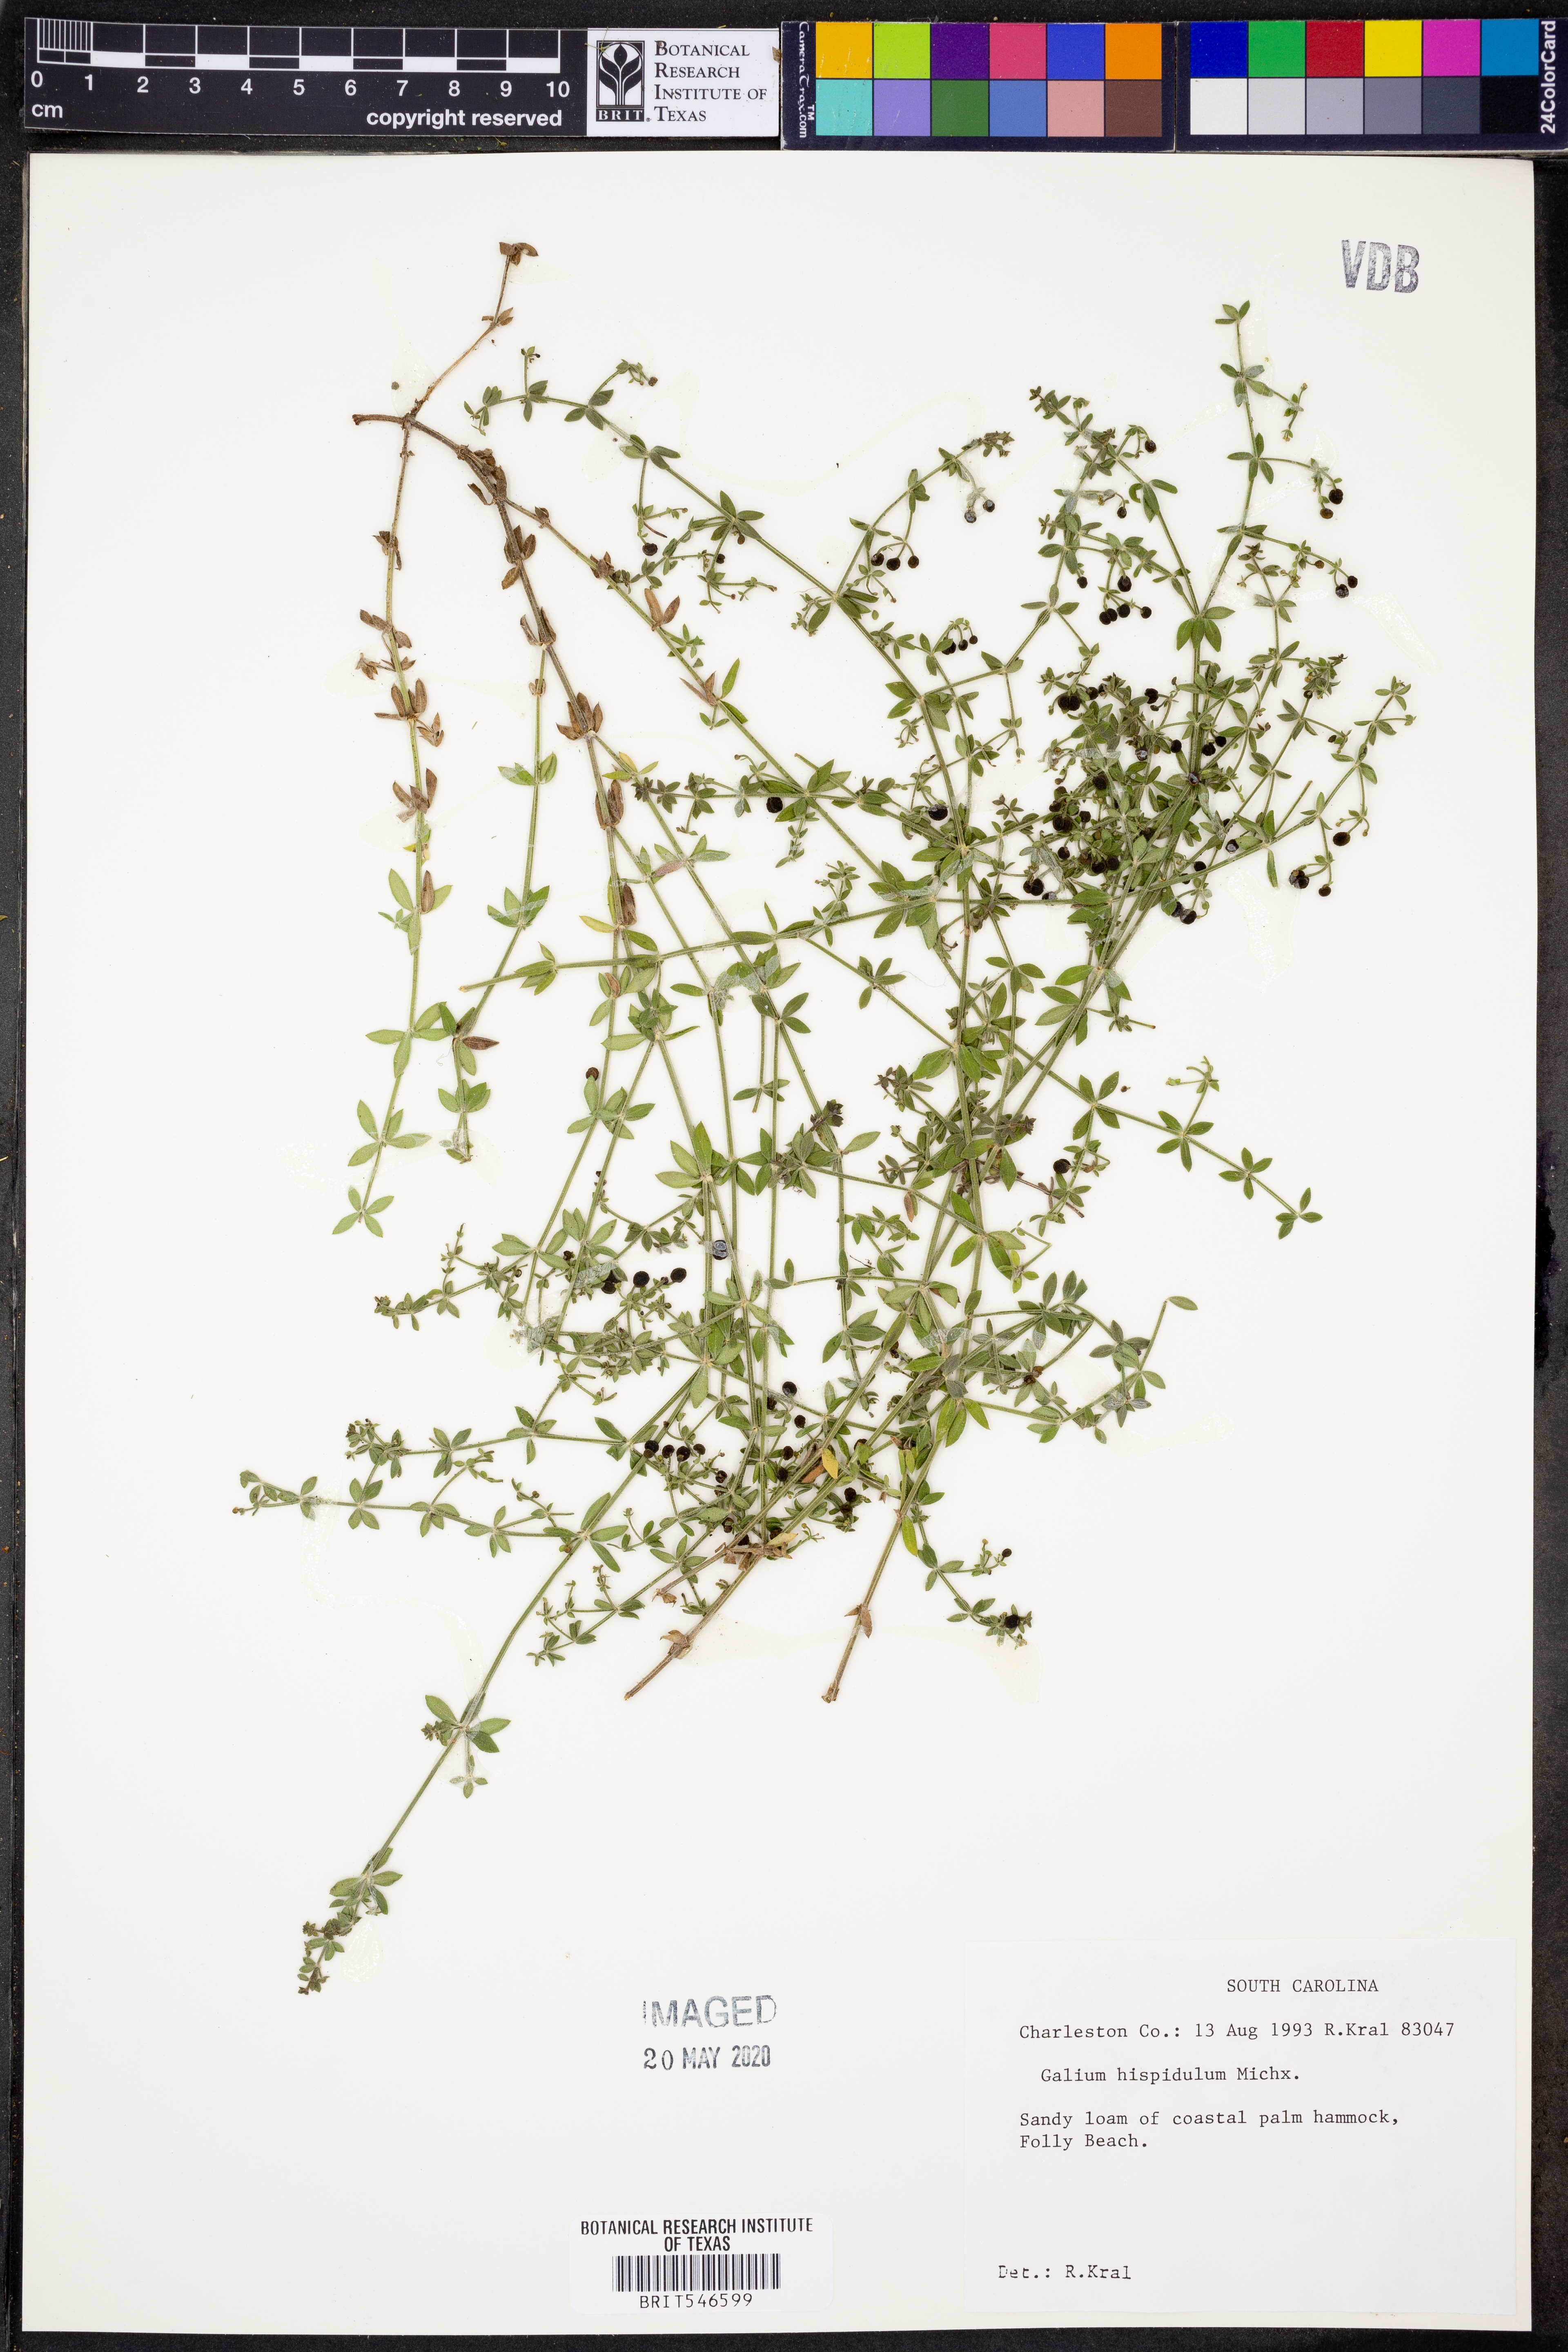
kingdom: Plantae
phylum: Tracheophyta
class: Magnoliopsida
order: Gentianales
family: Rubiaceae
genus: Galium
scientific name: Galium bermudense
